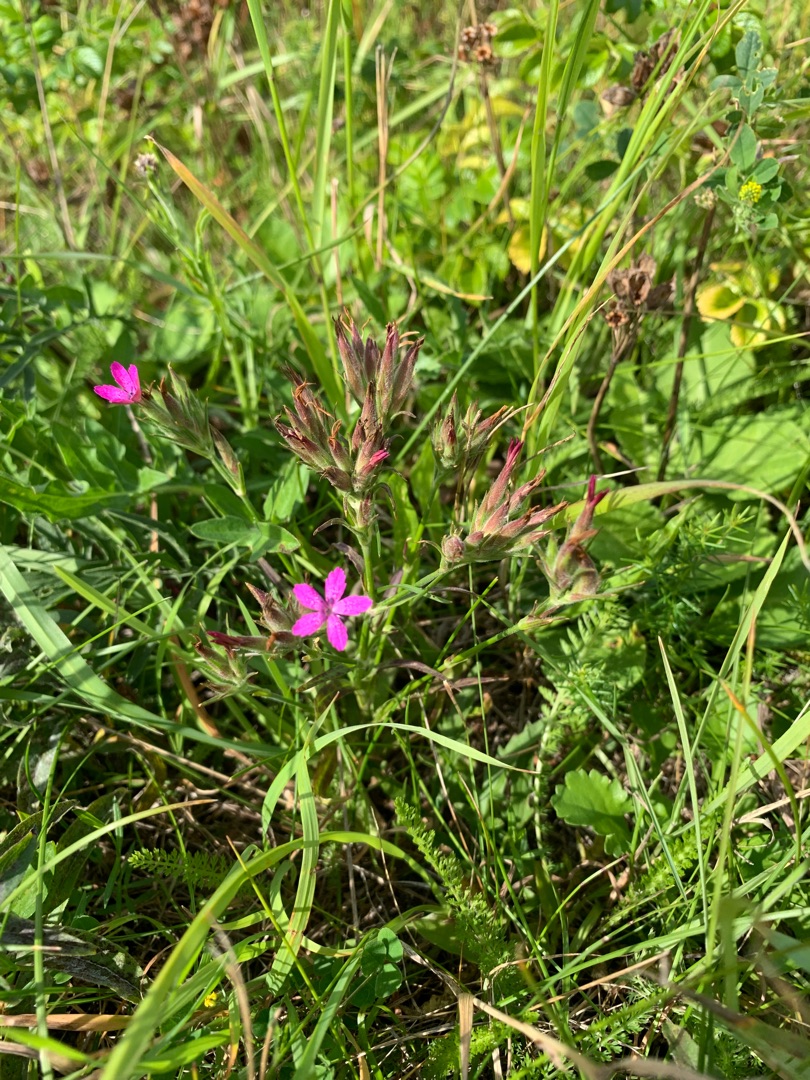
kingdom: Plantae
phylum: Tracheophyta
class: Magnoliopsida
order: Caryophyllales
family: Caryophyllaceae
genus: Dianthus
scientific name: Dianthus armeria
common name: Kost-nellike
